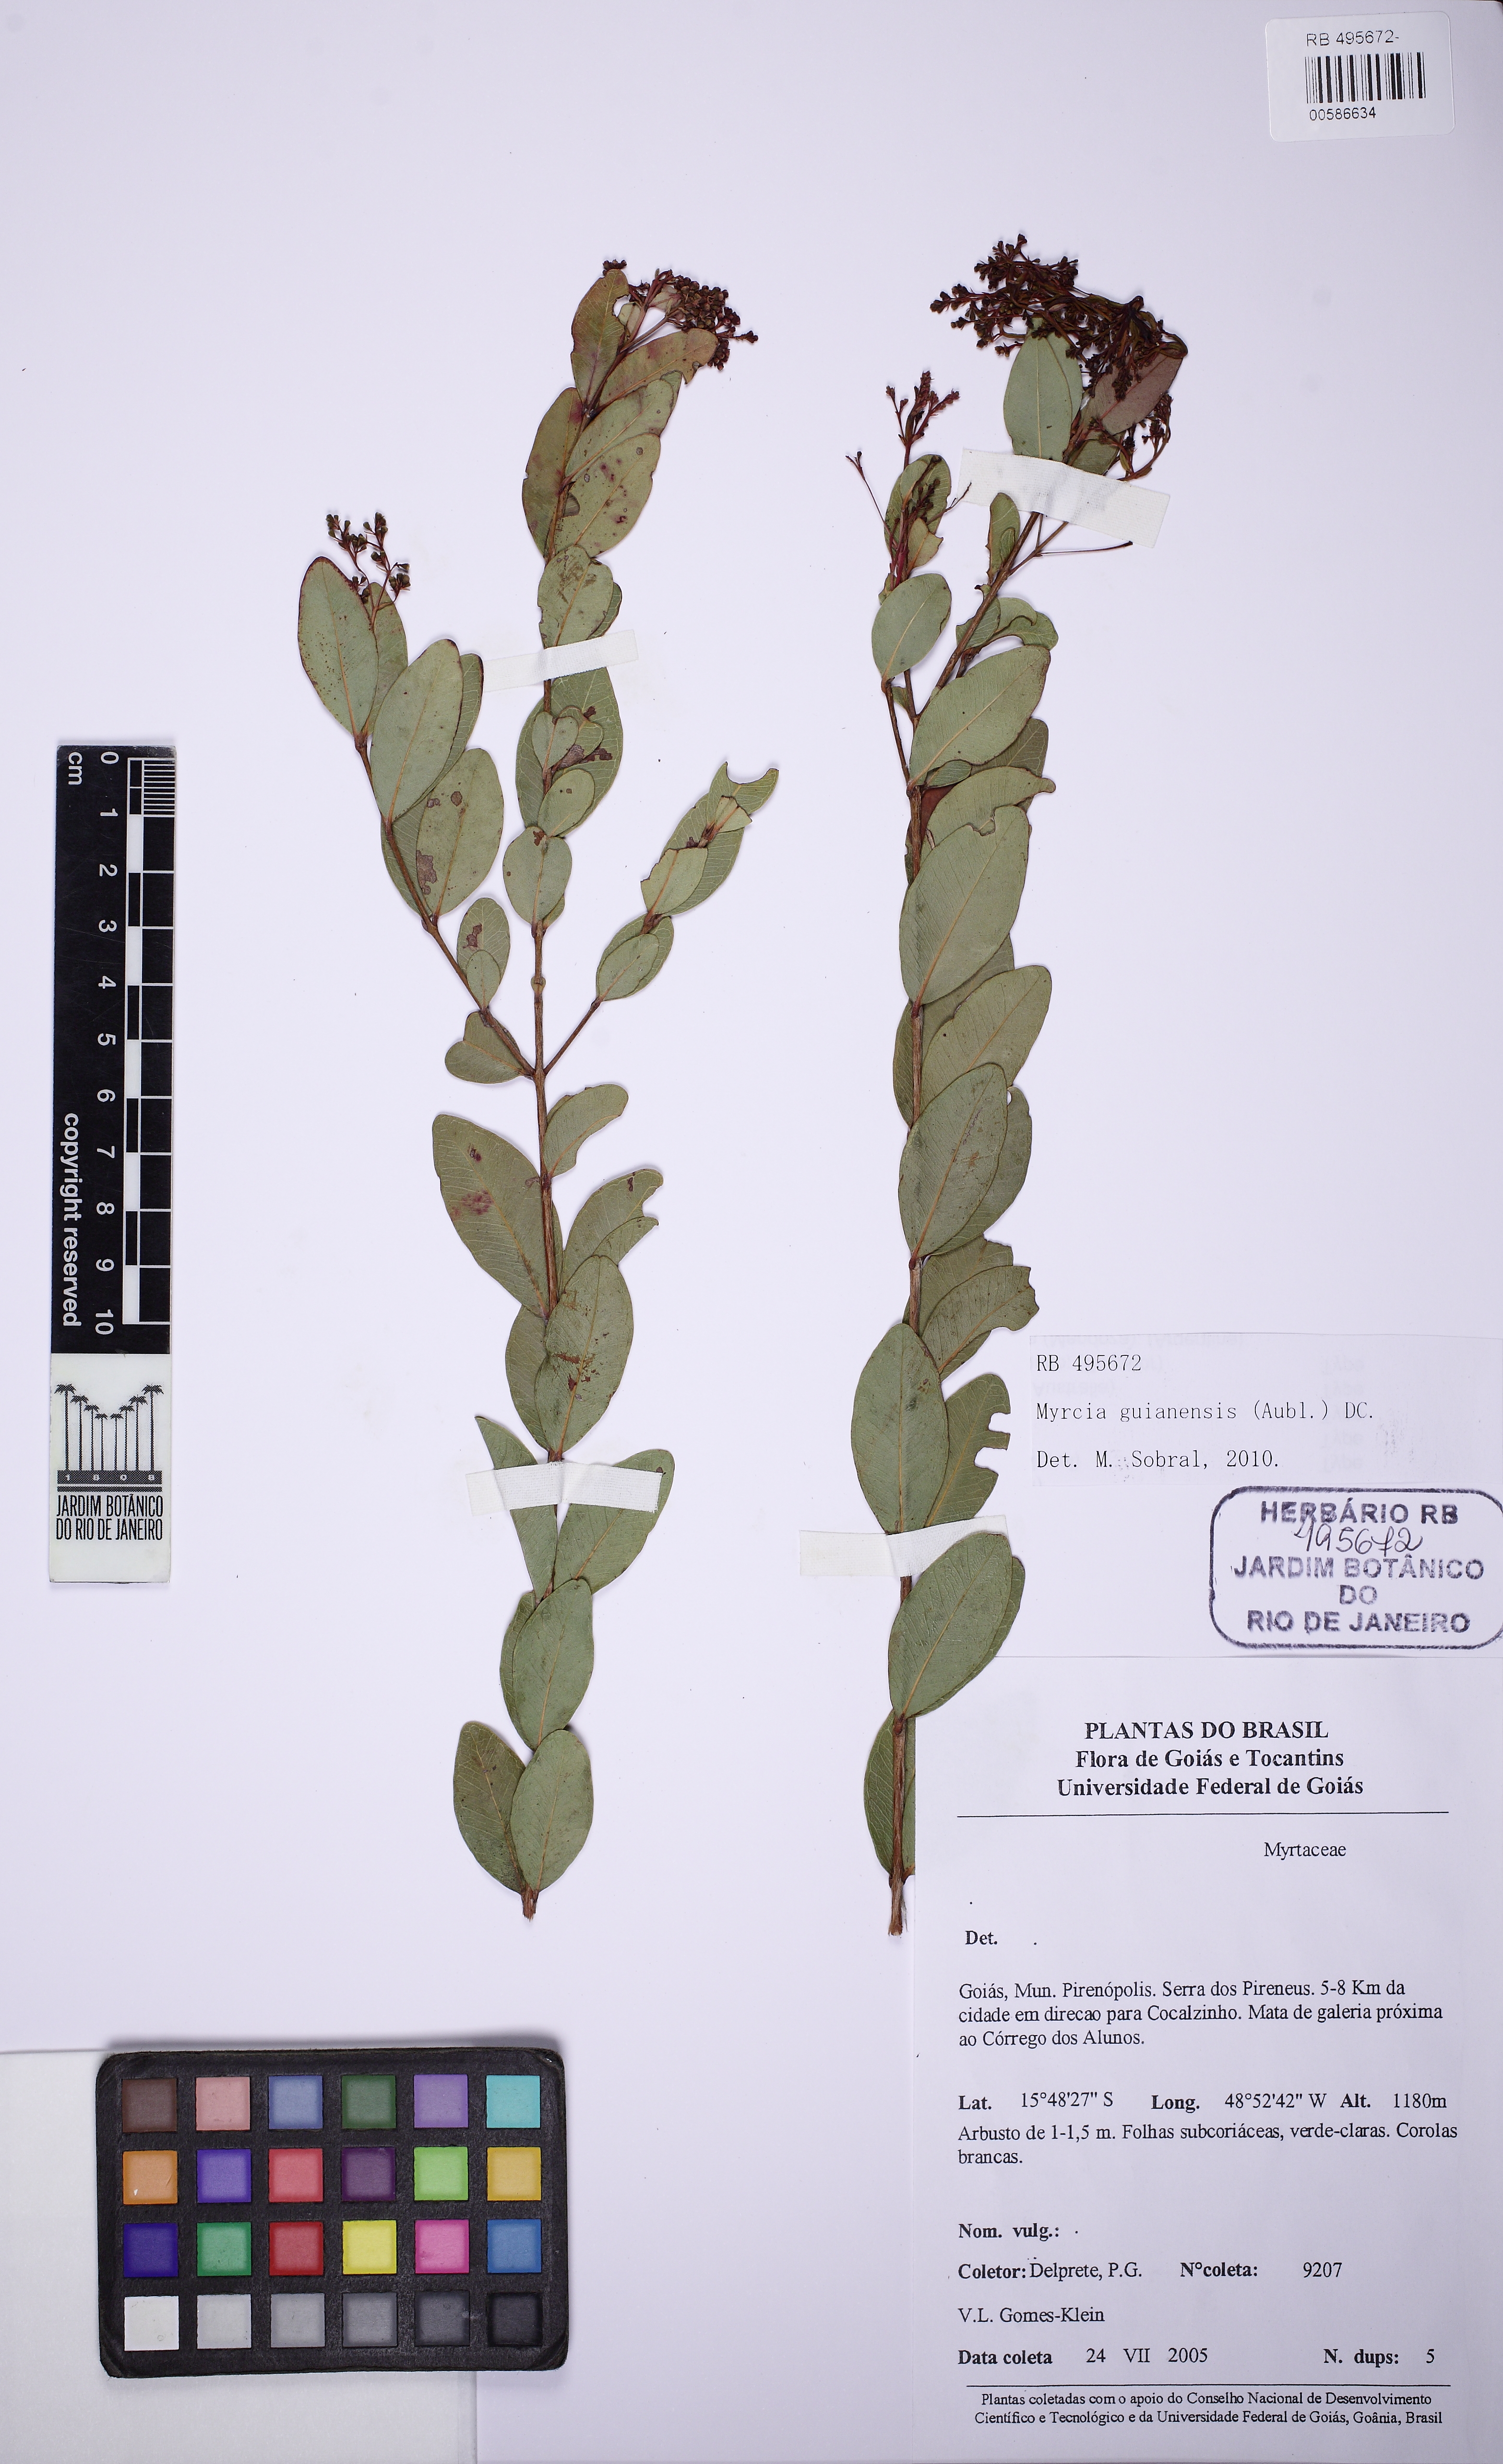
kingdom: Plantae
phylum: Tracheophyta
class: Magnoliopsida
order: Myrtales
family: Myrtaceae
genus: Myrcia
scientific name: Myrcia rubella
